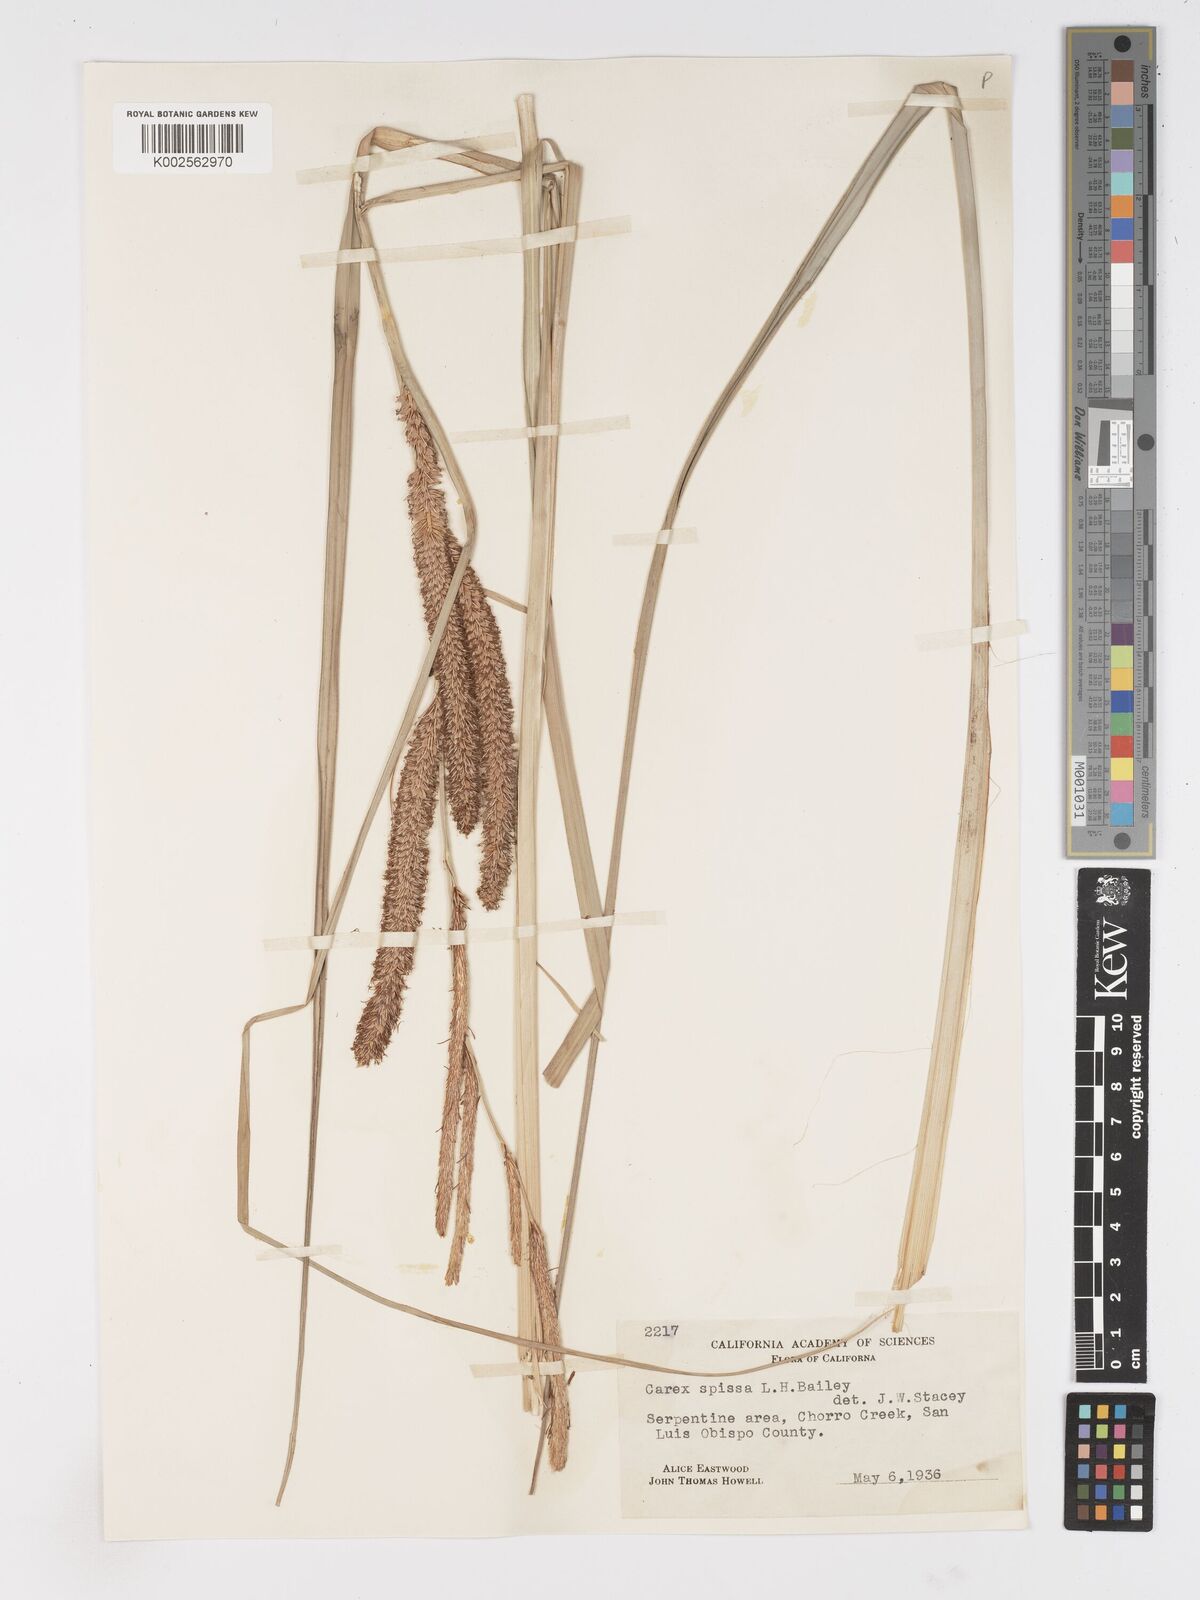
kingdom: Plantae
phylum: Tracheophyta
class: Liliopsida
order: Poales
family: Cyperaceae
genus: Carex
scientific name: Carex spissa
